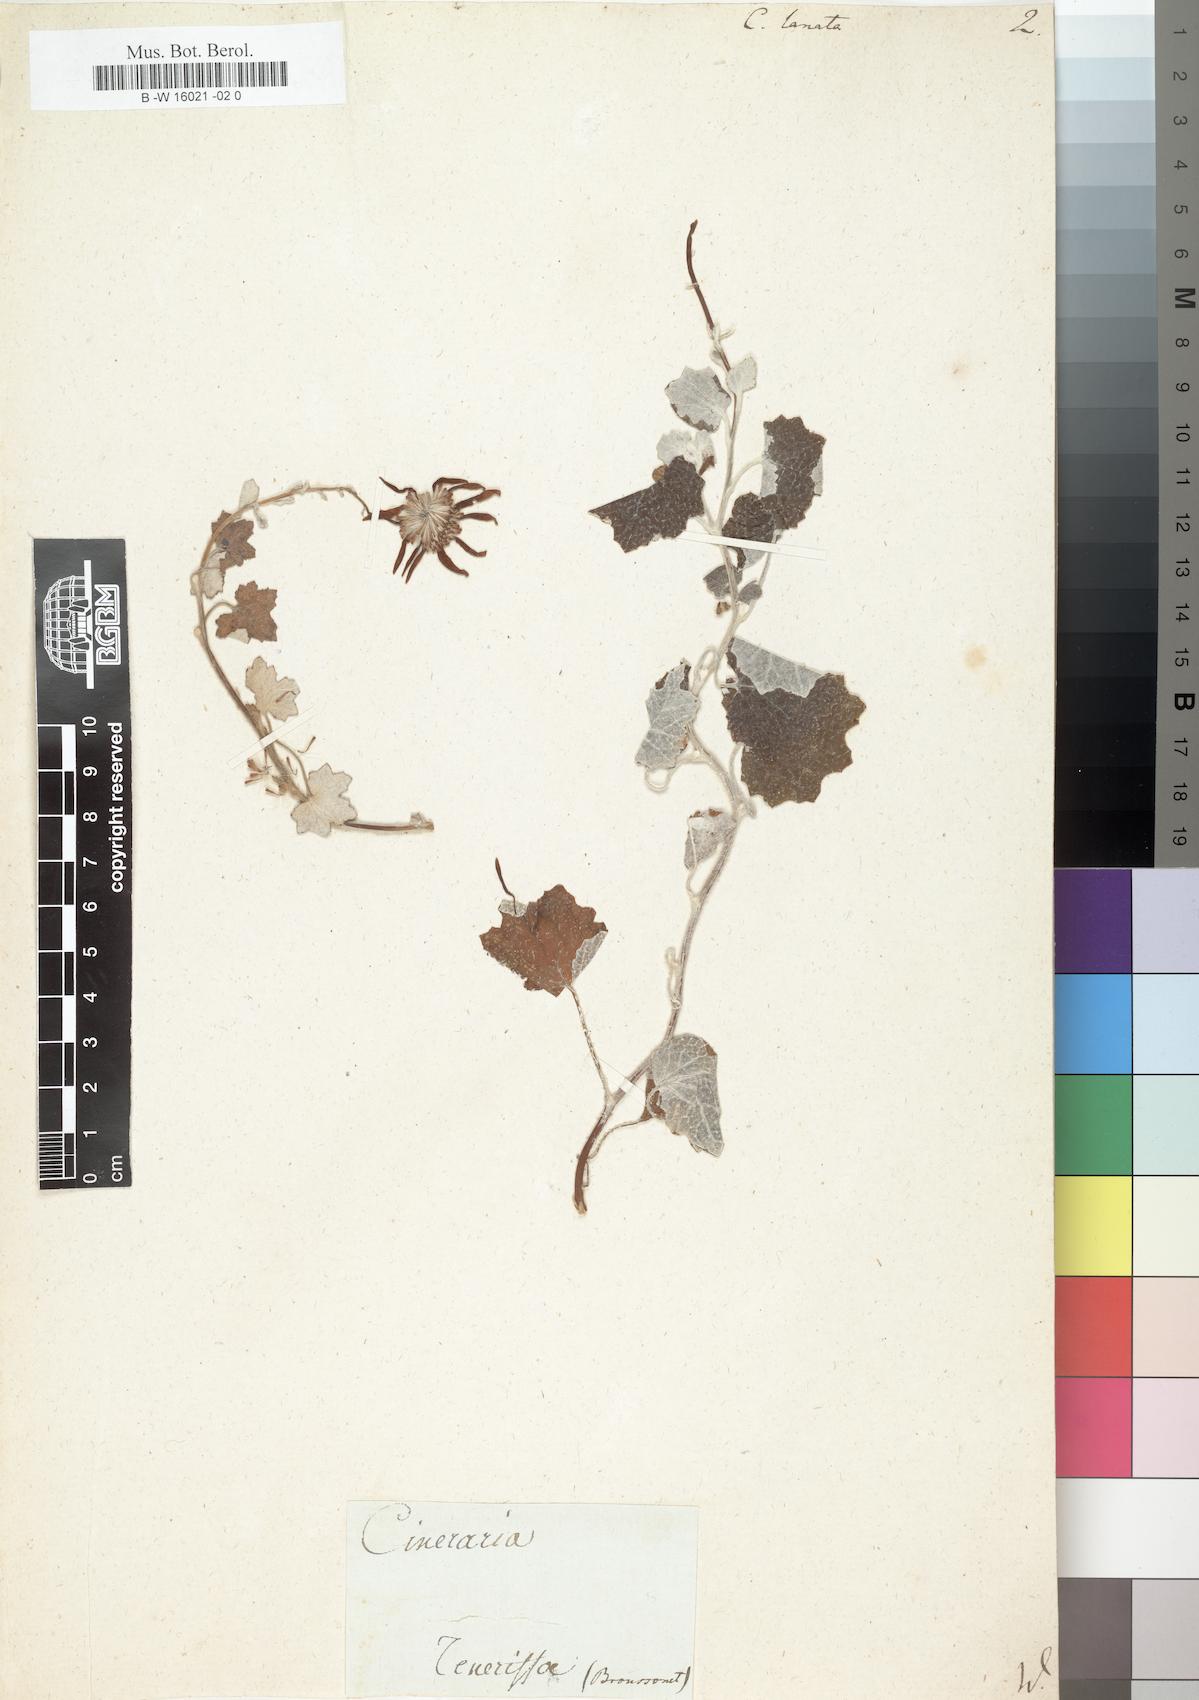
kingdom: Plantae
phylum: Tracheophyta
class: Magnoliopsida
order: Asterales
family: Asteraceae
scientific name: Asteraceae
